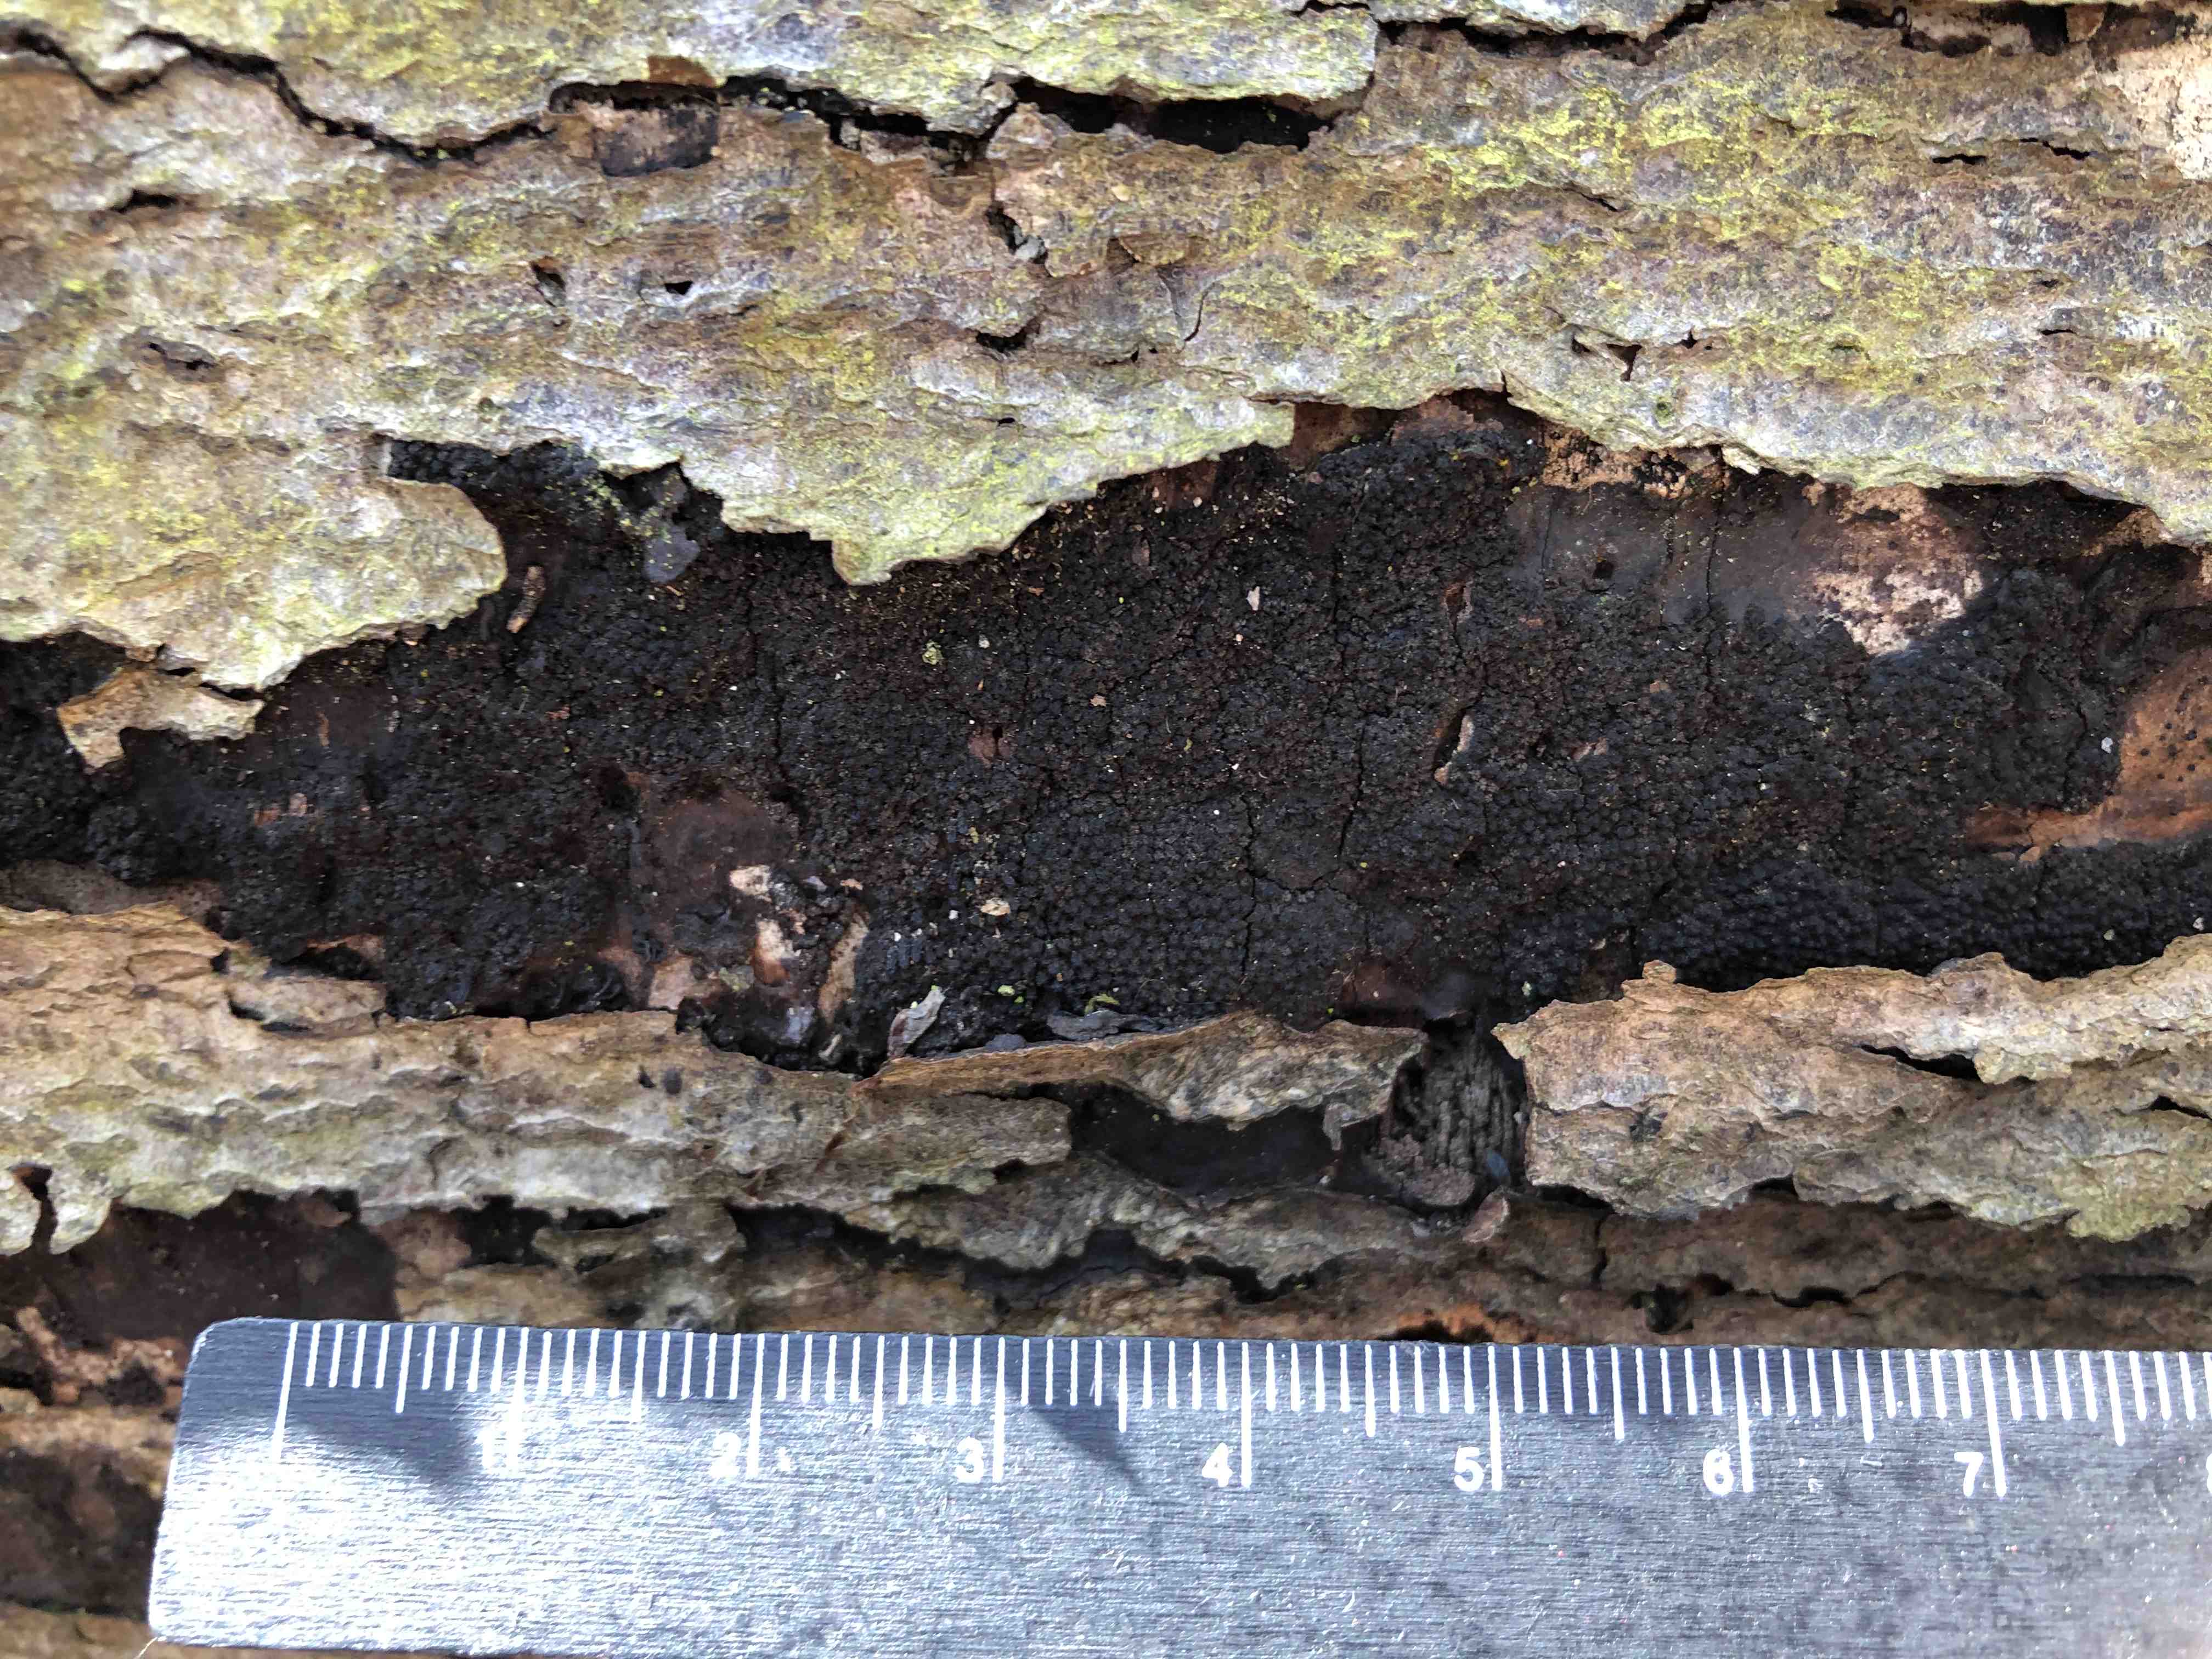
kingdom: Fungi
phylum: Ascomycota
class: Sordariomycetes
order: Xylariales
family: Diatrypaceae
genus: Eutypa
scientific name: Eutypa spinosa
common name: grov kulskorpe
